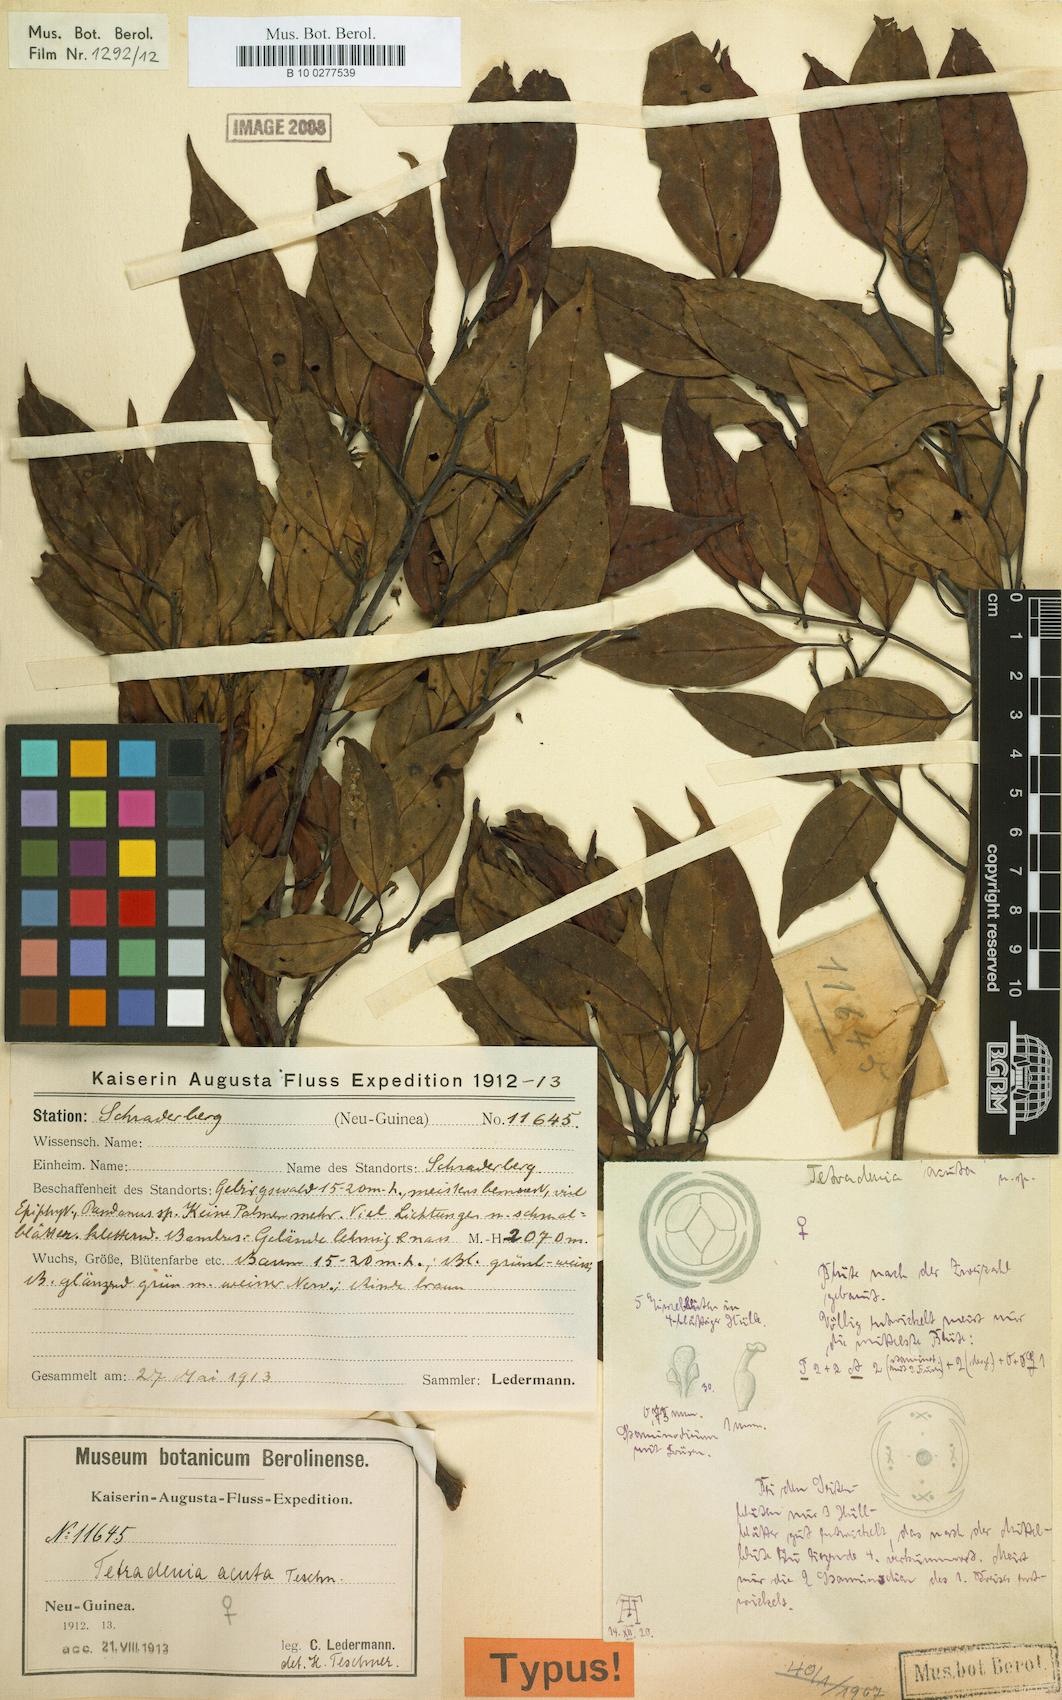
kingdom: Plantae
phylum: Tracheophyta
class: Magnoliopsida
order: Laurales
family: Lauraceae
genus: Neolitsea
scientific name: Neolitsea acuta
